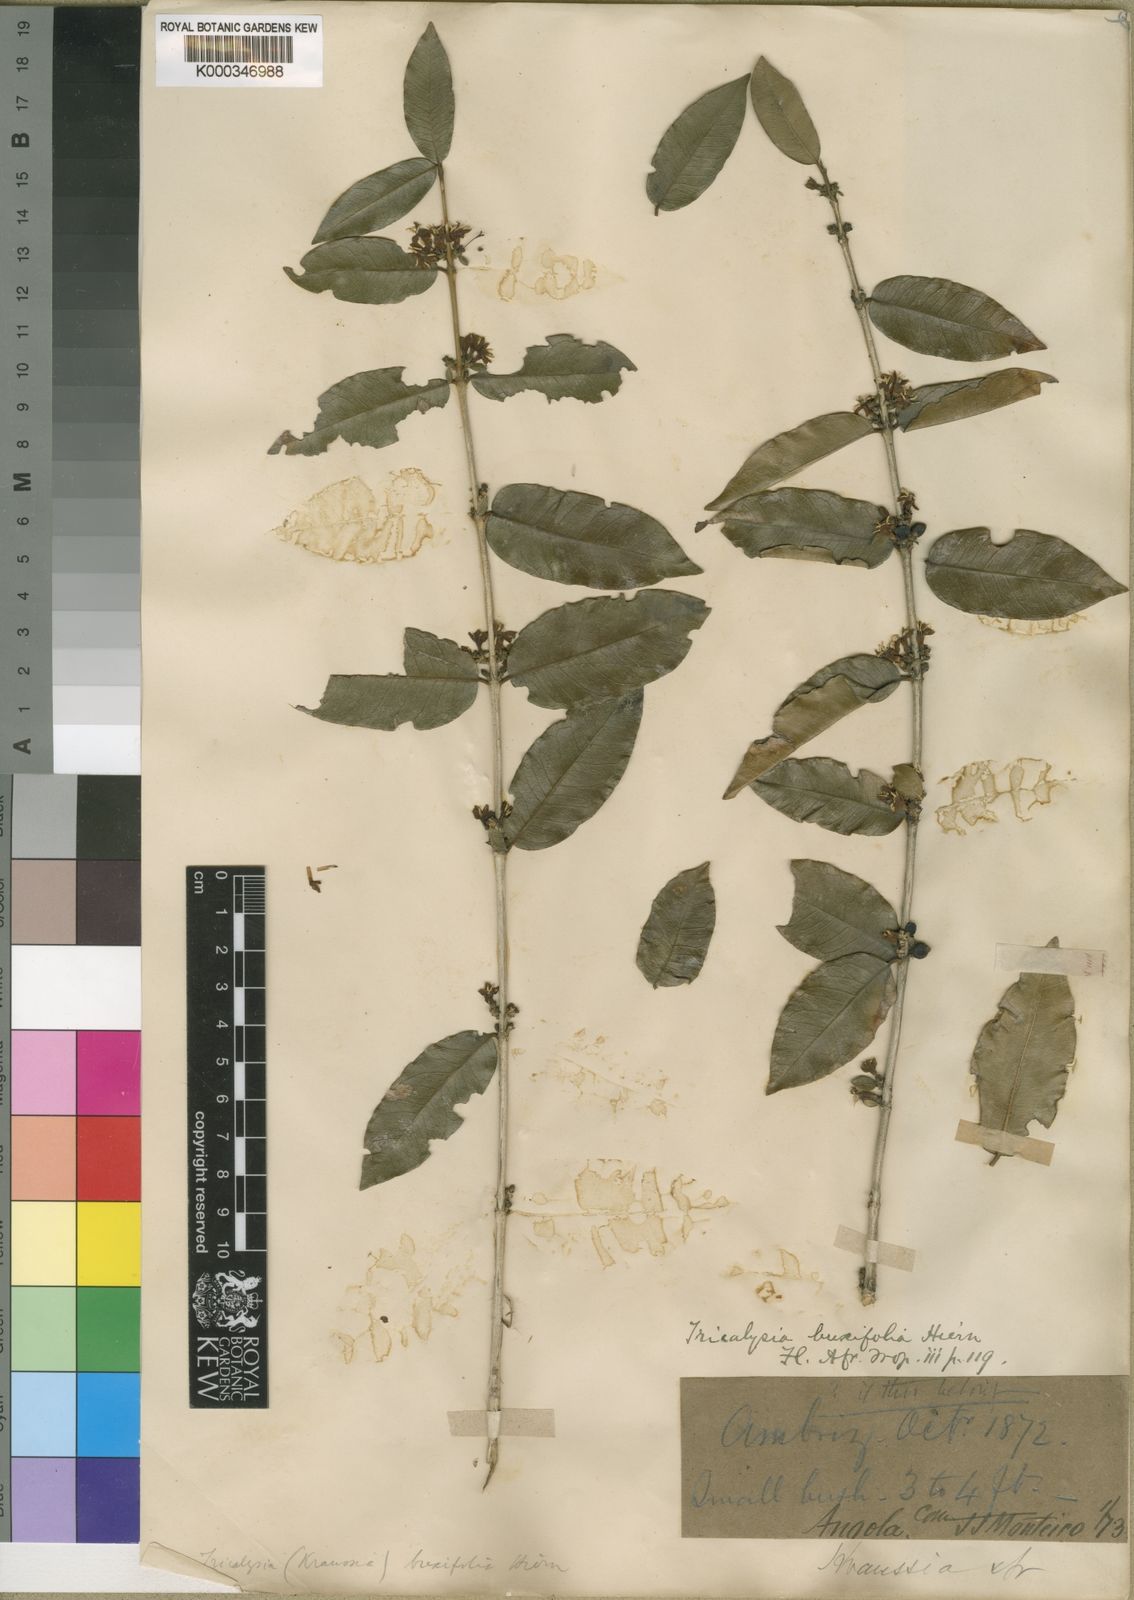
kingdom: Plantae
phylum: Tracheophyta
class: Magnoliopsida
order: Gentianales
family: Rubiaceae
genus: Empogona
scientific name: Empogona buxifolia
